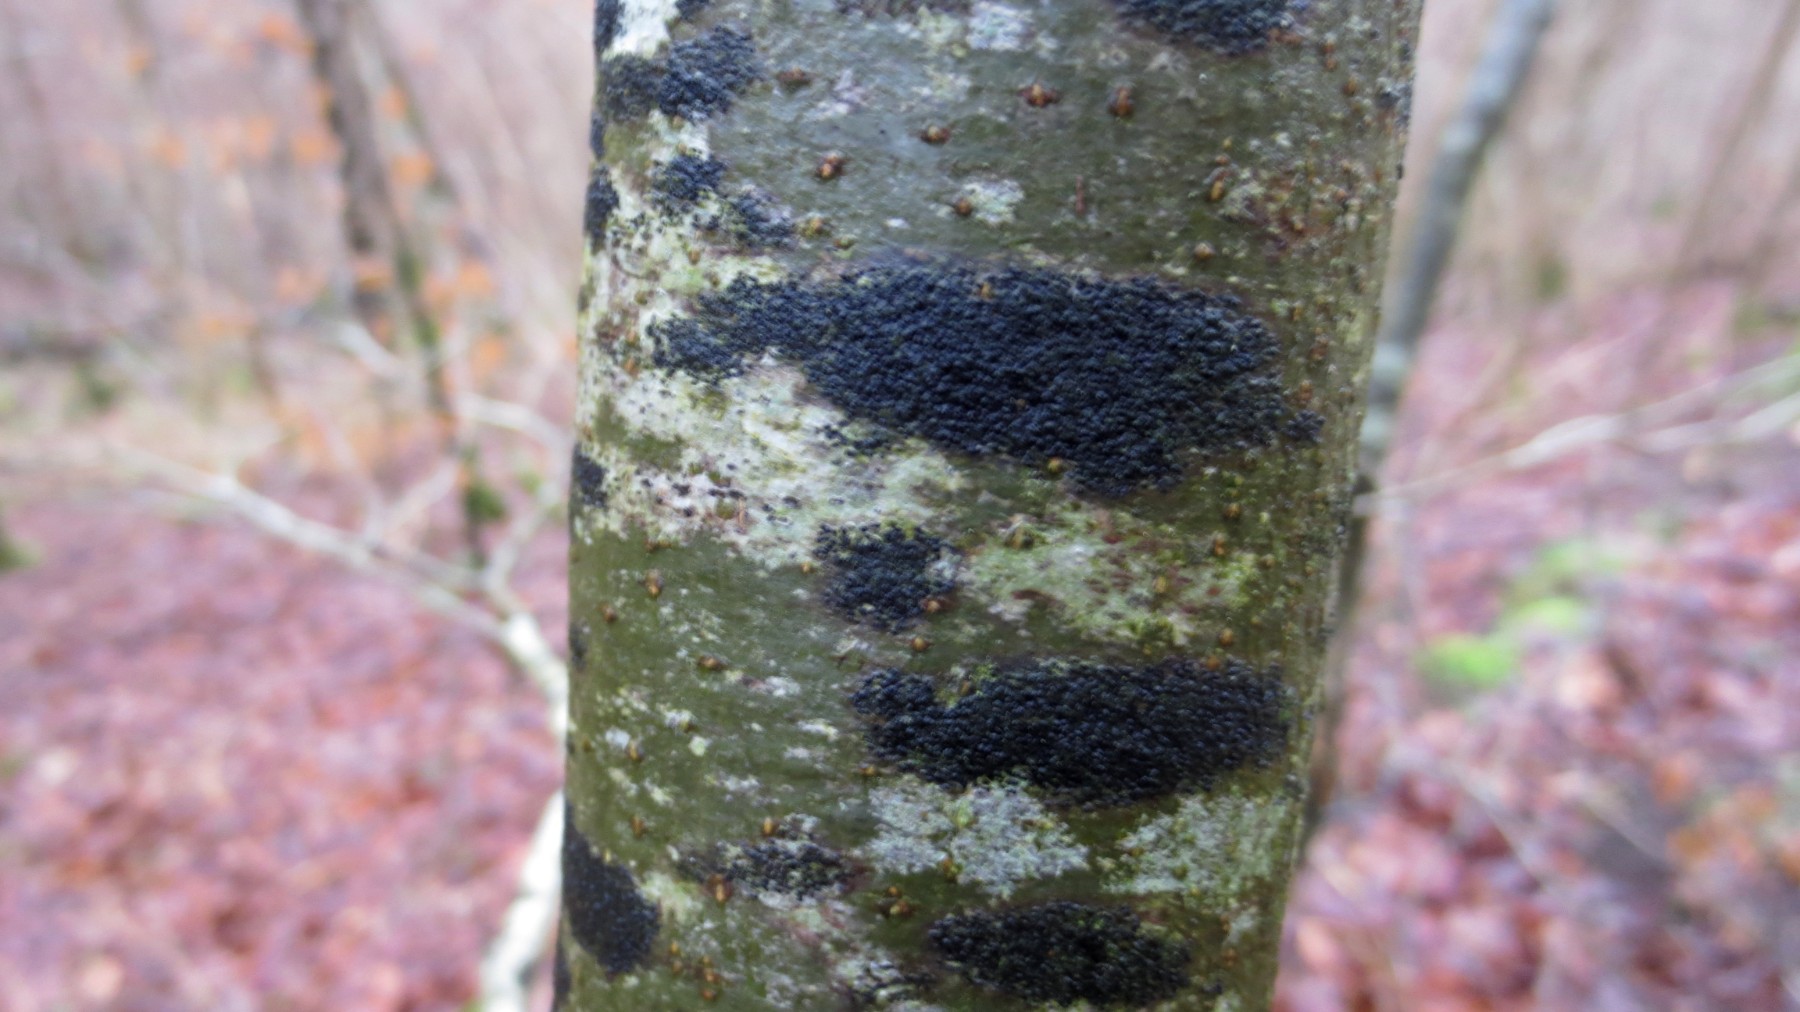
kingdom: Fungi
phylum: Ascomycota
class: Leotiomycetes
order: Rhytismatales
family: Ascodichaenaceae
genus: Ascodichaena
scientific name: Ascodichaena rugosa
